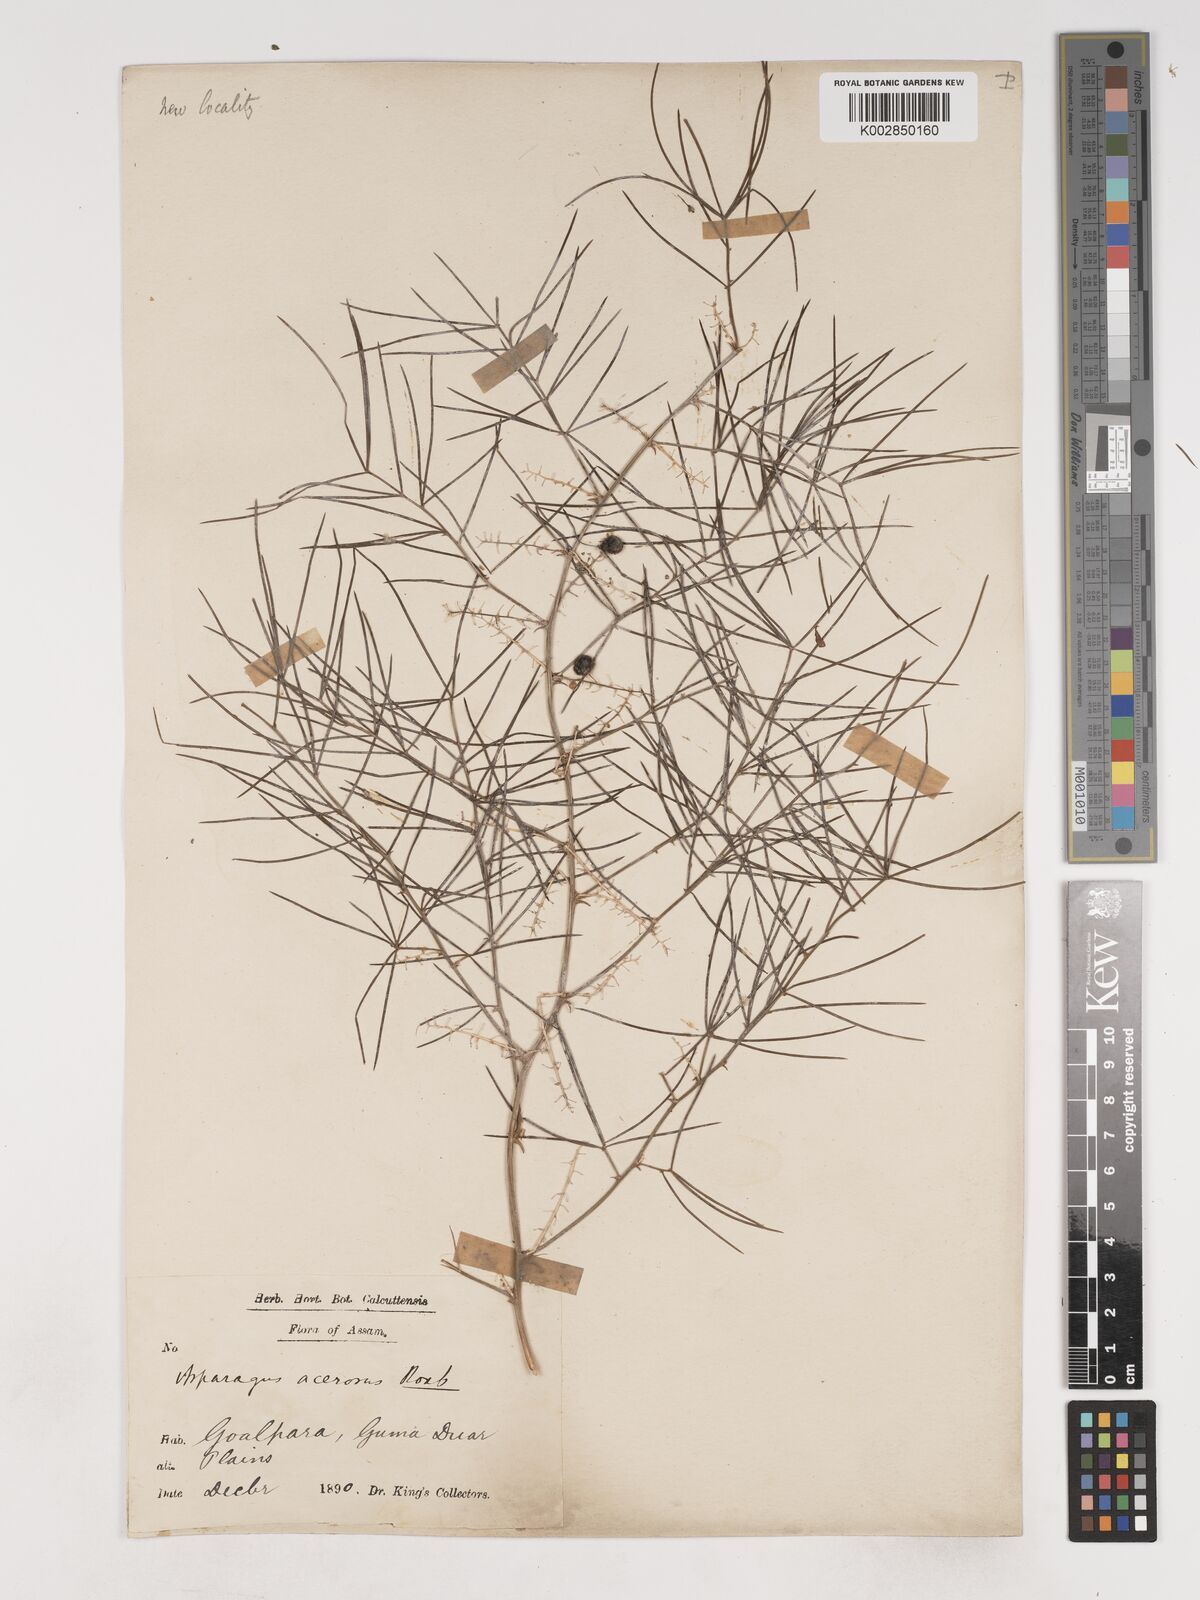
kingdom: Plantae
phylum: Tracheophyta
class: Liliopsida
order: Asparagales
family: Asparagaceae
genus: Asparagus
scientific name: Asparagus racemosus
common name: Asparagus-fern
